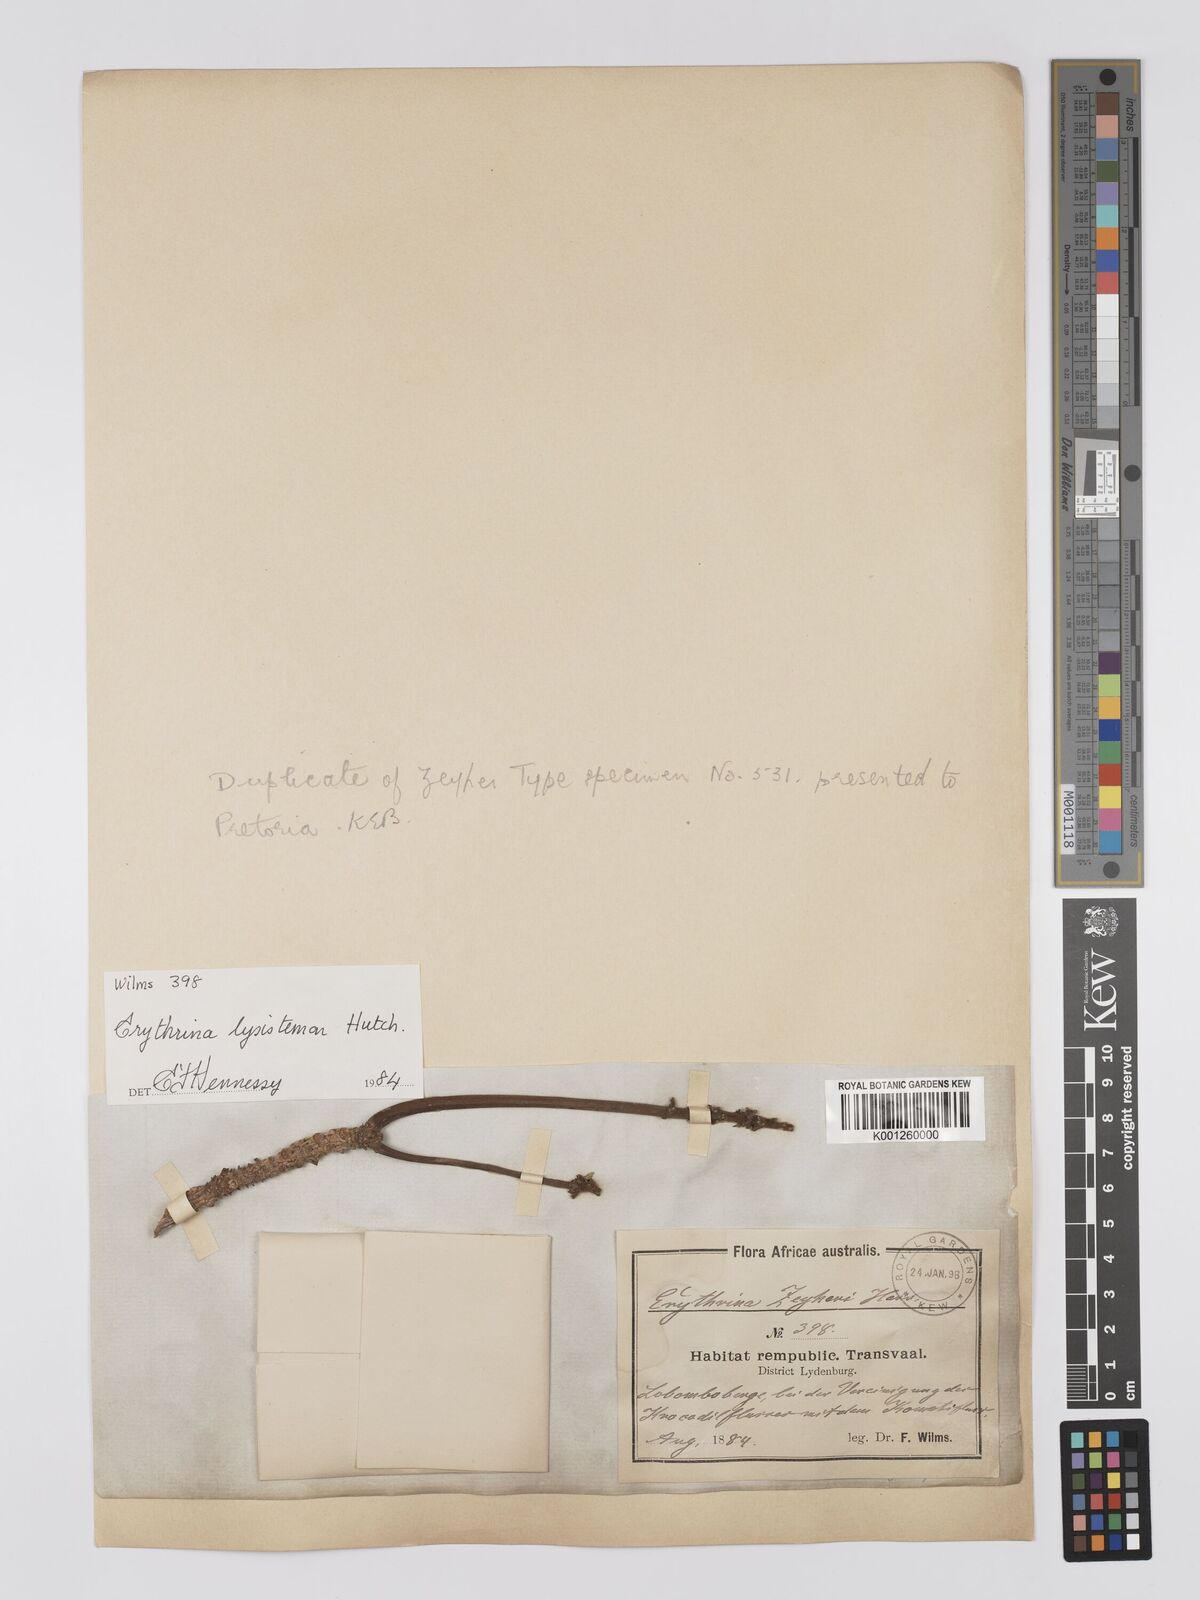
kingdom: Plantae
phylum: Tracheophyta
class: Magnoliopsida
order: Fabales
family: Fabaceae
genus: Erythrina
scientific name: Erythrina lysistemon
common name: Common coral tree
